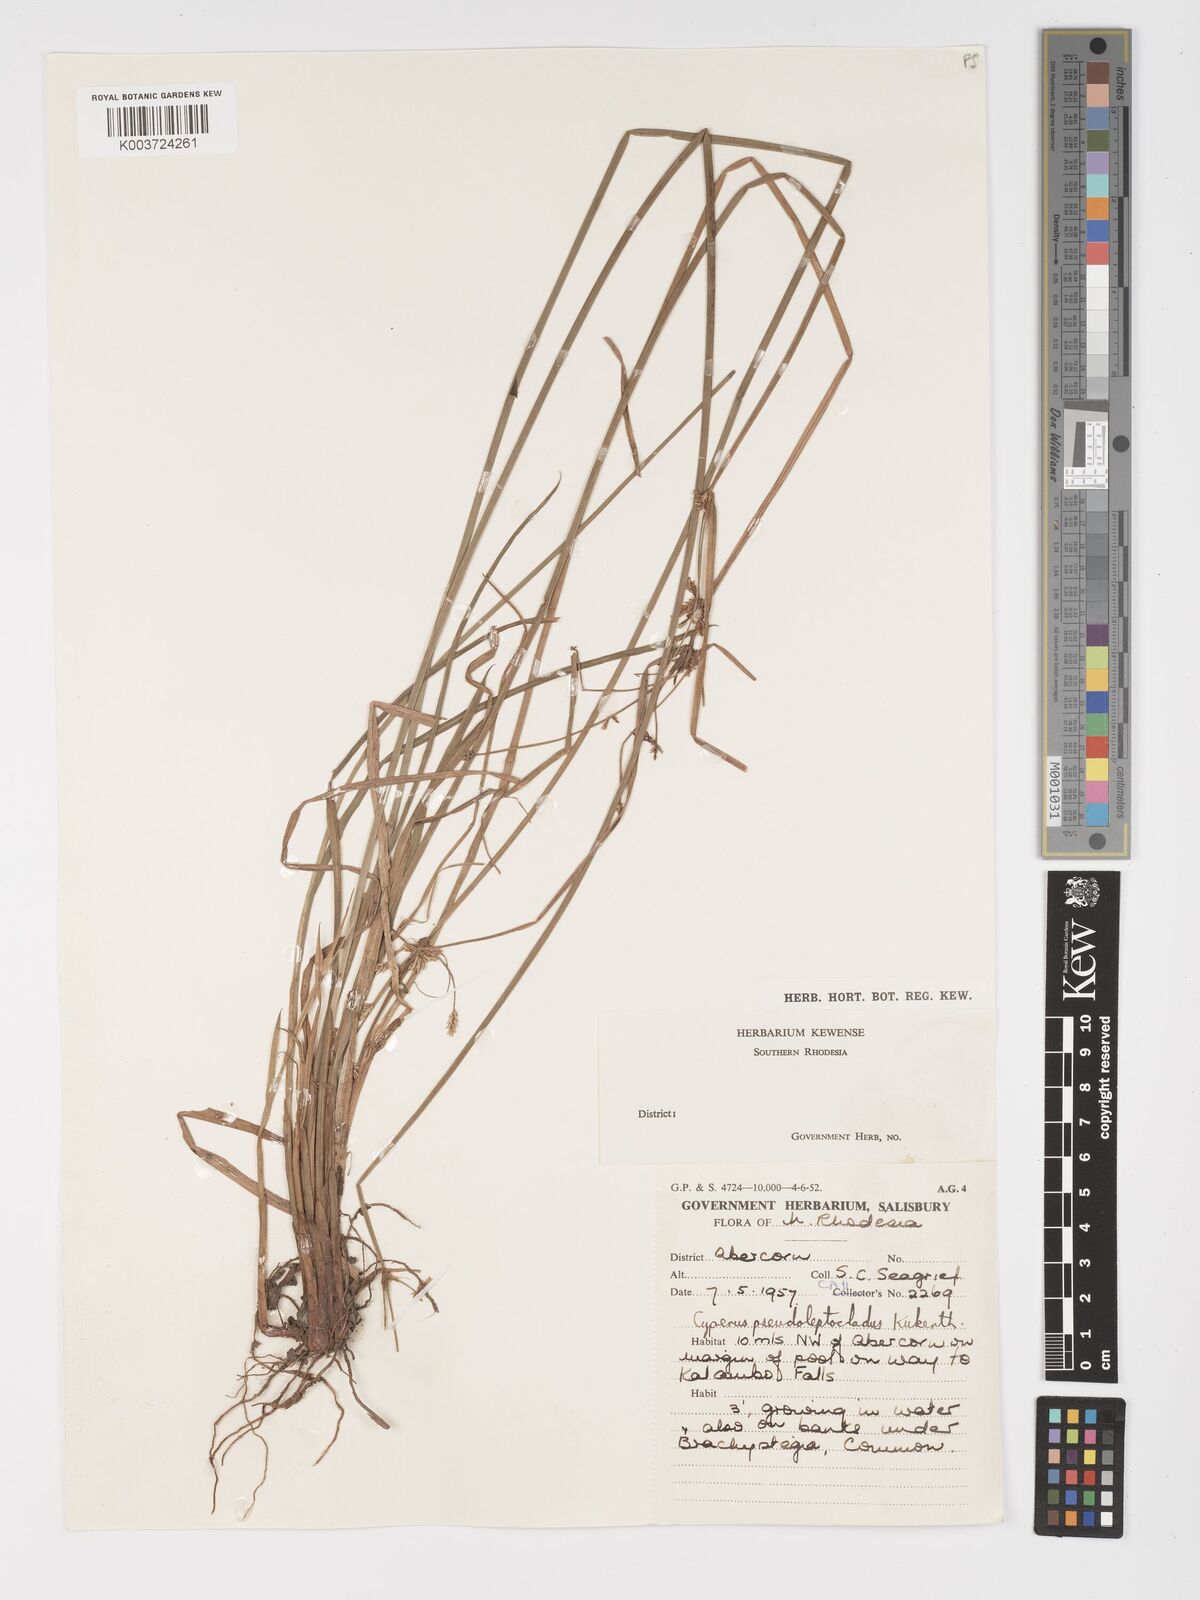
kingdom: Plantae
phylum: Tracheophyta
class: Liliopsida
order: Poales
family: Cyperaceae
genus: Cyperus
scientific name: Cyperus
